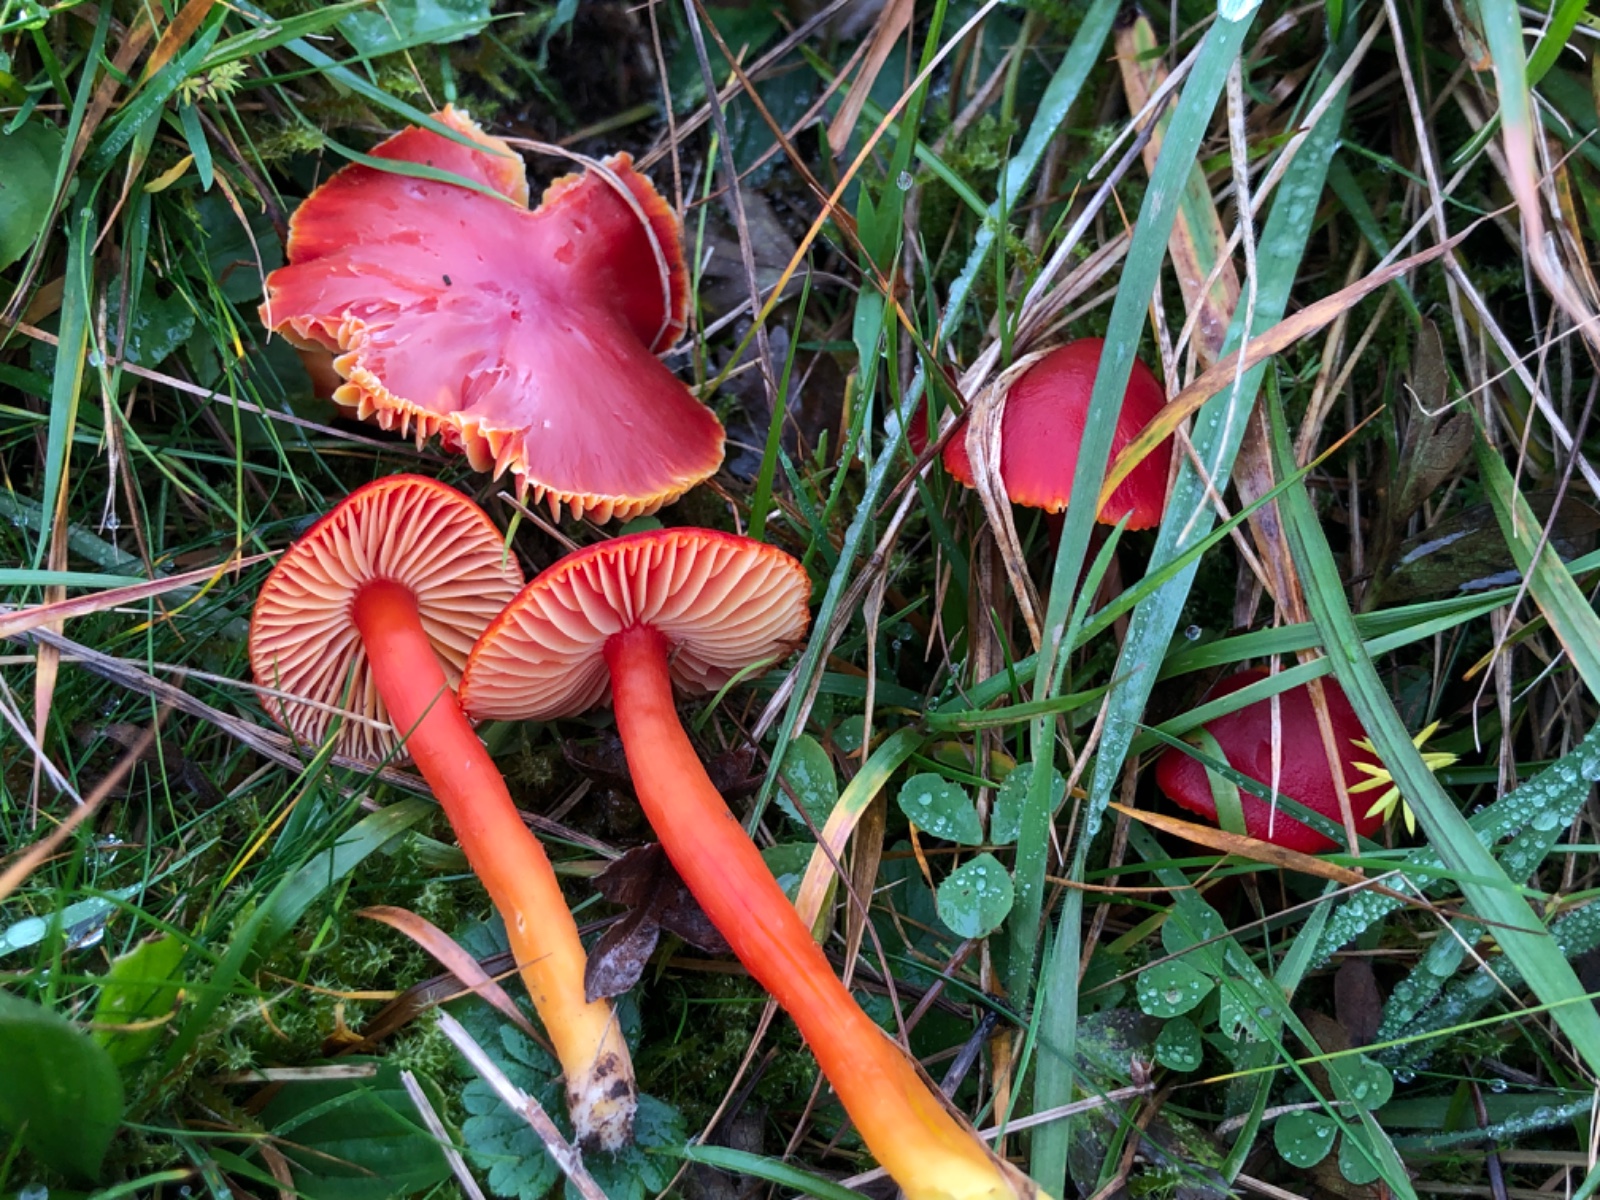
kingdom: Fungi
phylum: Basidiomycota
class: Agaricomycetes
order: Agaricales
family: Hygrophoraceae
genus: Hygrocybe
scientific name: Hygrocybe coccinea
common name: cinnober-vokshat
